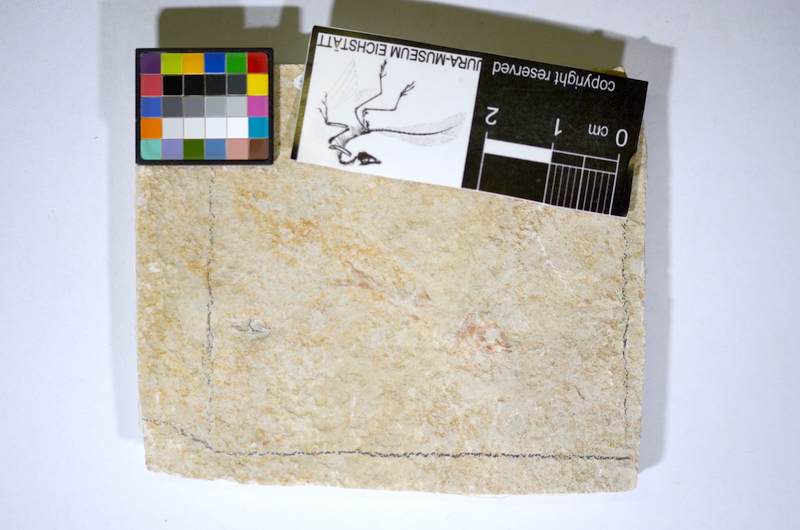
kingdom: Animalia
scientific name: Animalia
